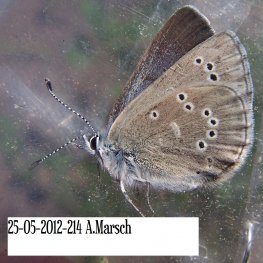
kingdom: Animalia
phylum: Arthropoda
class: Insecta
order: Lepidoptera
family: Lycaenidae
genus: Glaucopsyche
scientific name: Glaucopsyche lygdamus
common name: Silvery Blue
